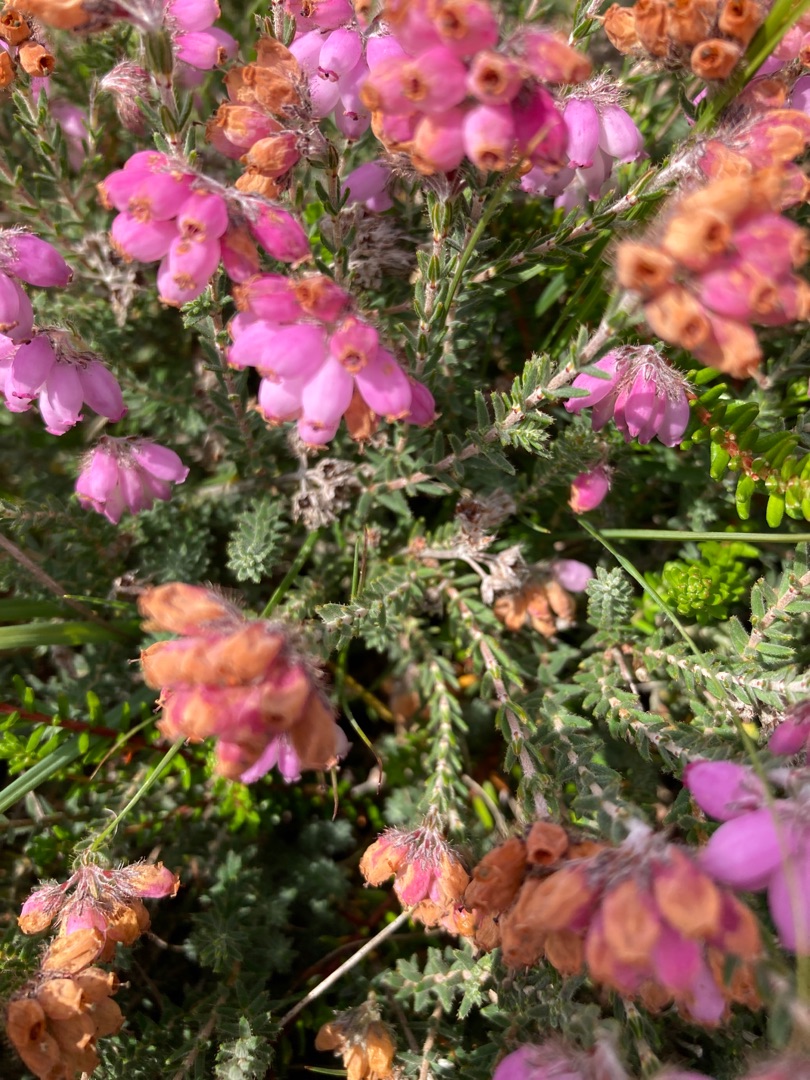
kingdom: Plantae
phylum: Tracheophyta
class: Magnoliopsida
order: Ericales
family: Ericaceae
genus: Erica
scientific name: Erica tetralix
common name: Klokkelyng
